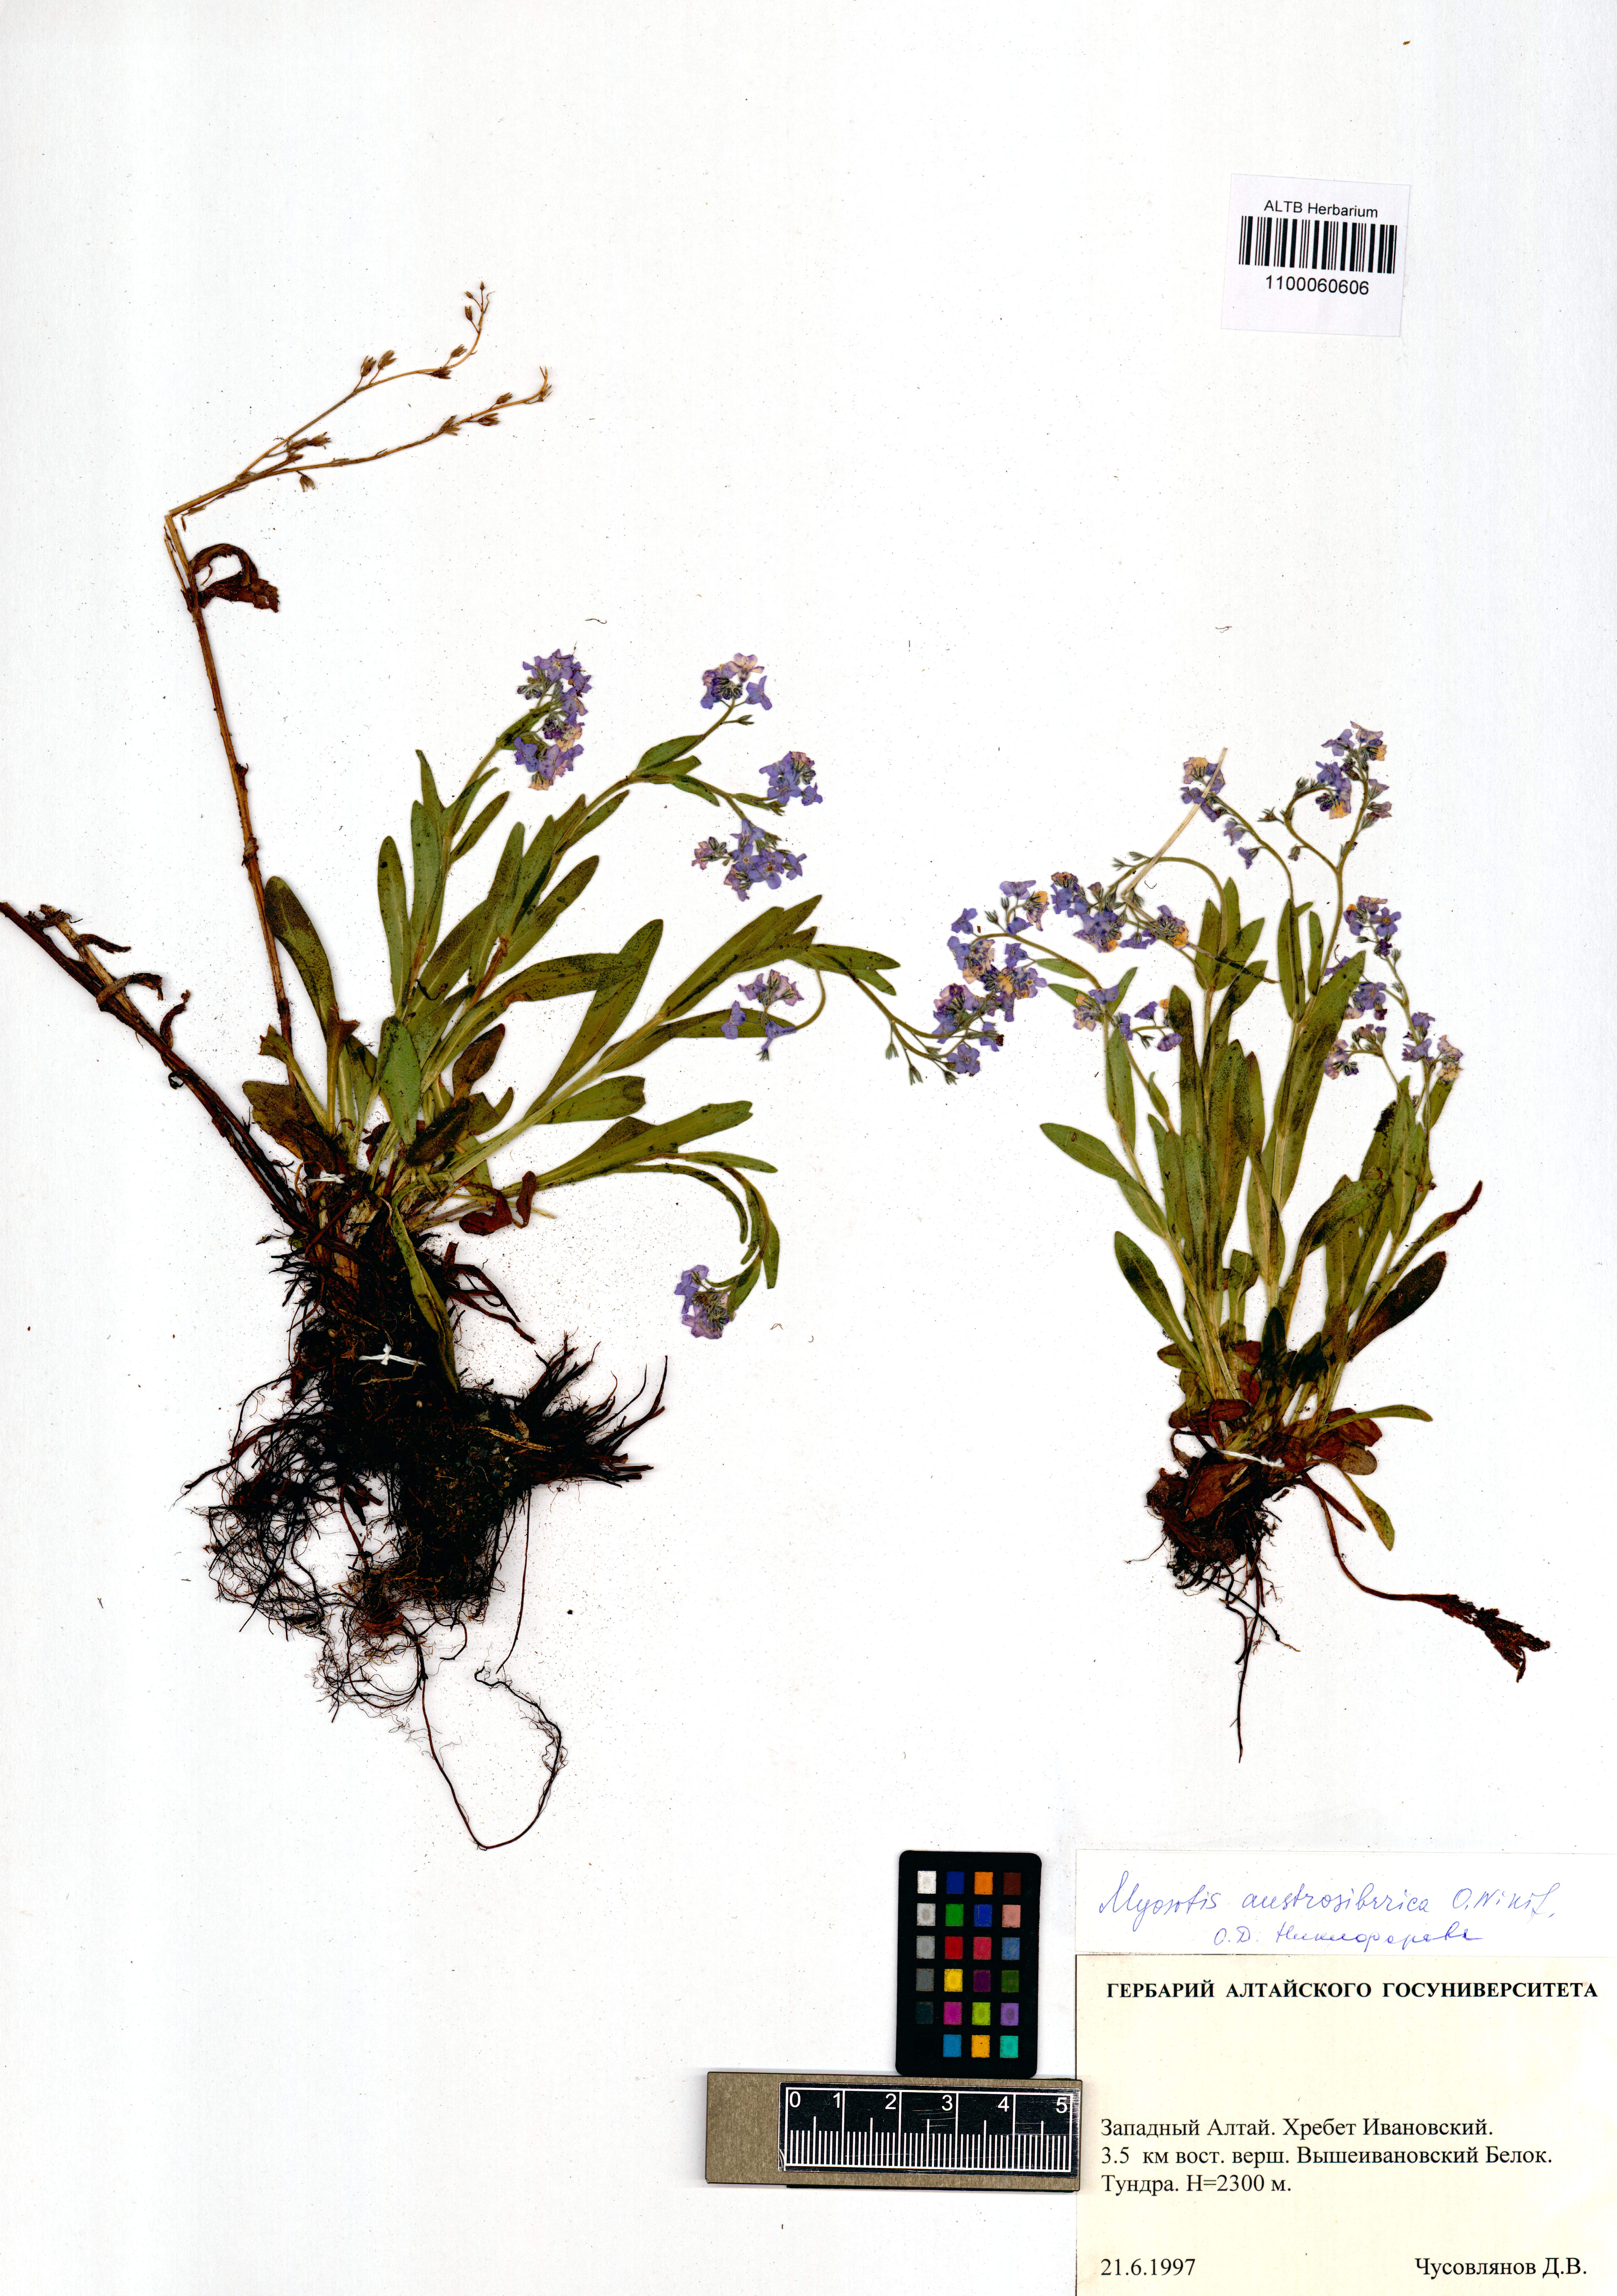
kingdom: Plantae
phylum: Tracheophyta
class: Magnoliopsida
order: Boraginales
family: Boraginaceae
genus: Myosotis
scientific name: Myosotis austrosibirica
